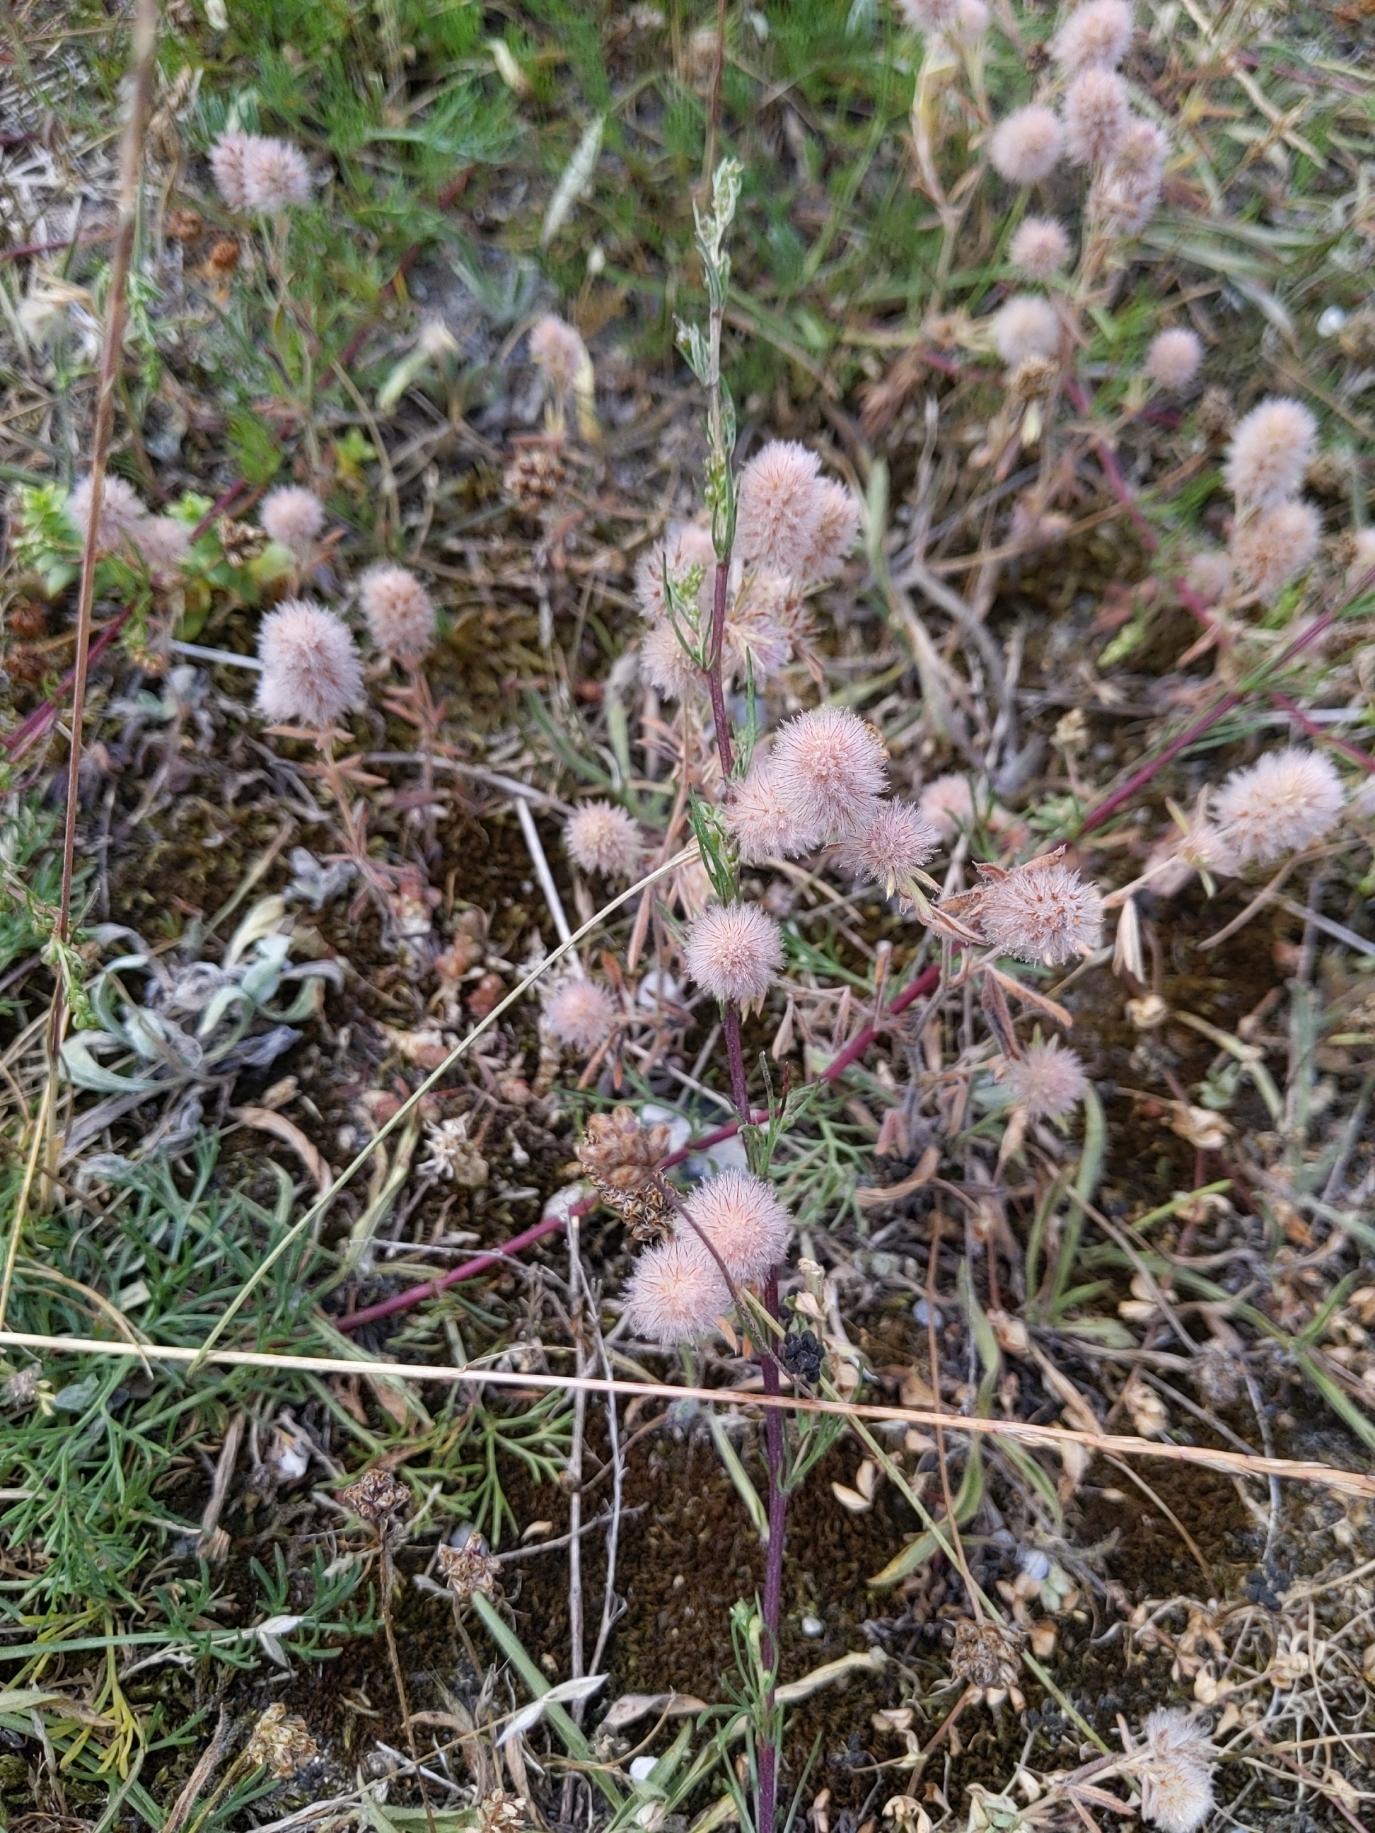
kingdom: Plantae
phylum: Tracheophyta
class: Magnoliopsida
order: Fabales
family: Fabaceae
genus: Trifolium
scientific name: Trifolium arvense
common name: Hare-kløver
